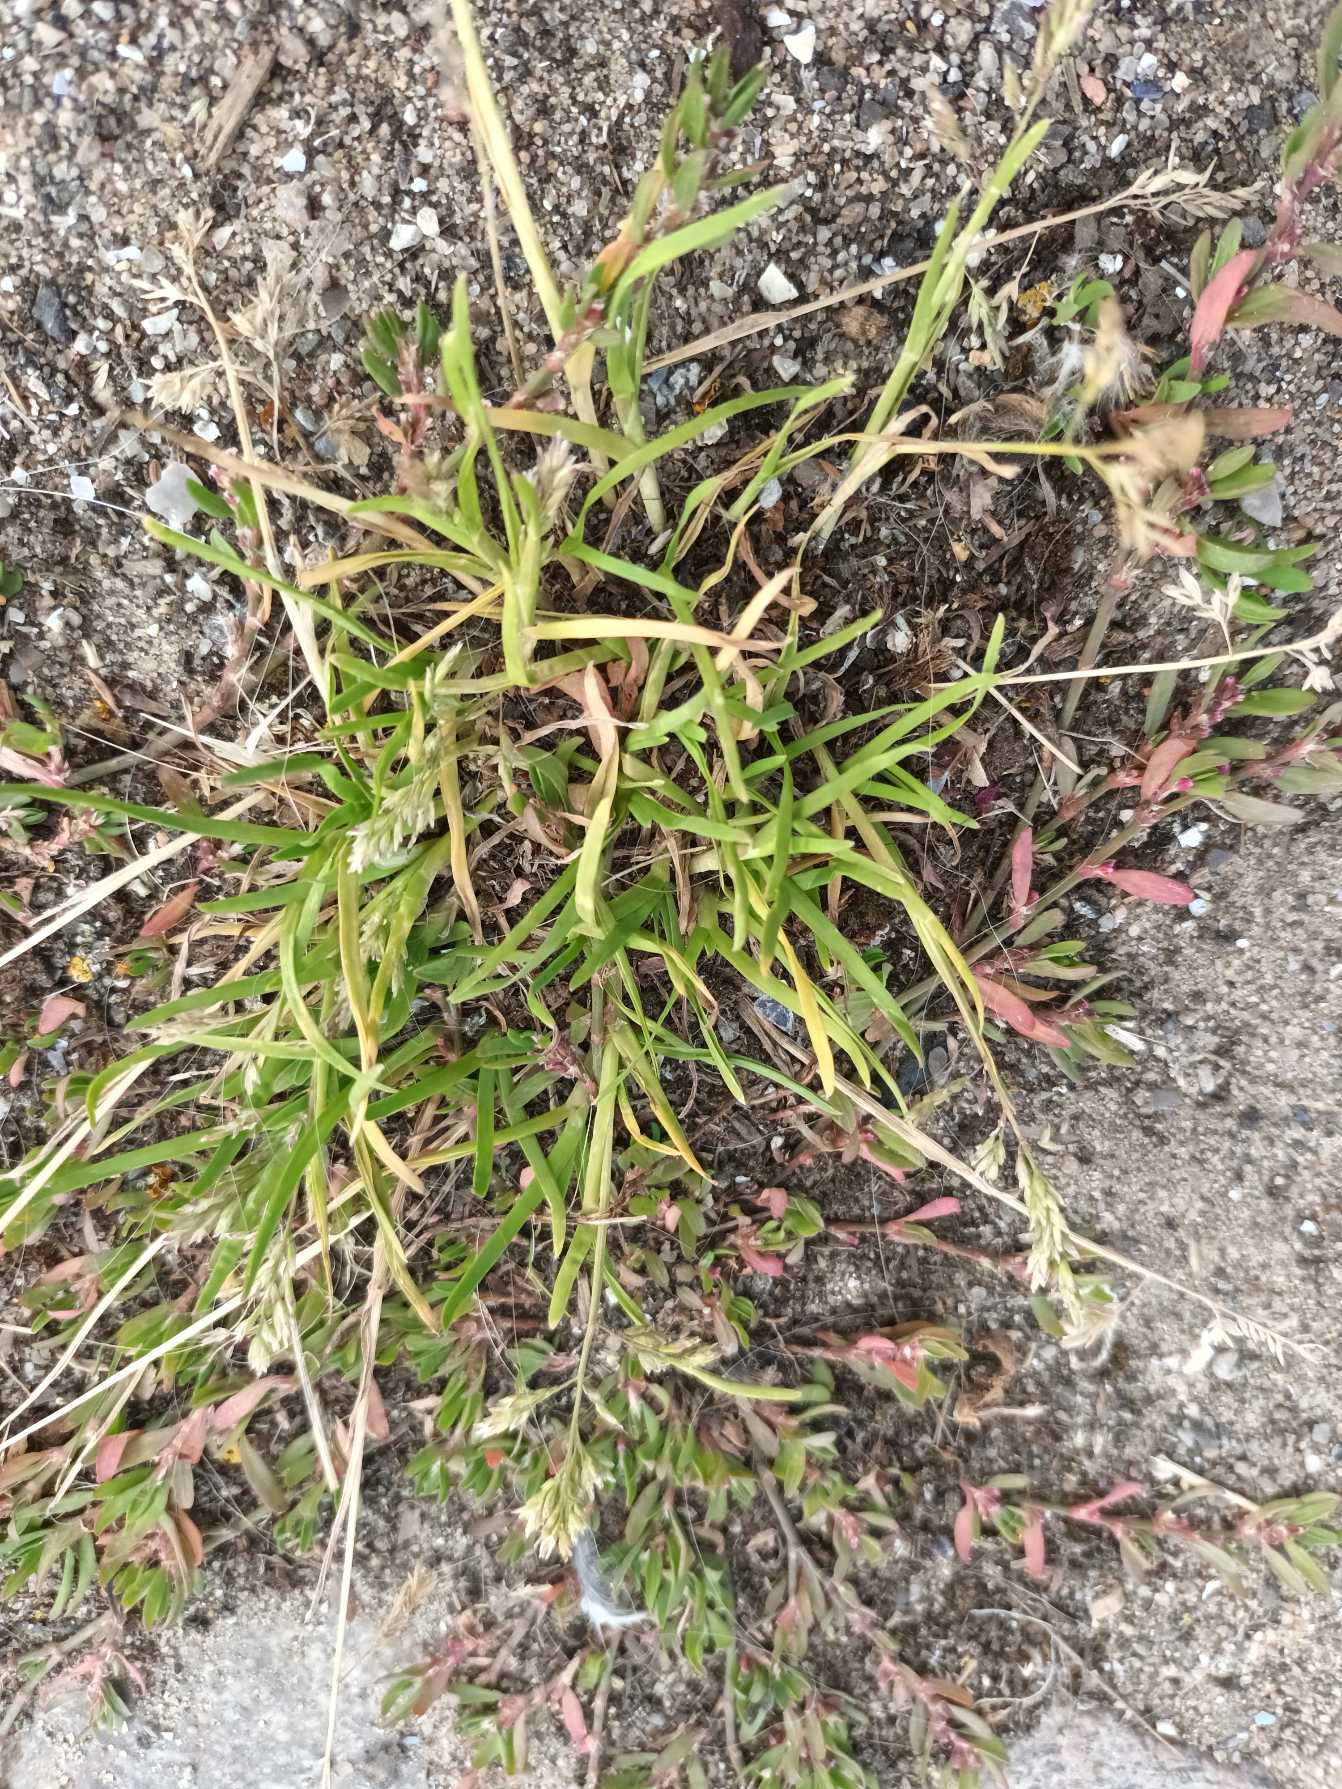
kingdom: Plantae
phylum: Tracheophyta
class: Liliopsida
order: Poales
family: Poaceae
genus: Poa
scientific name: Poa annua
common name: Enårig rapgræs
